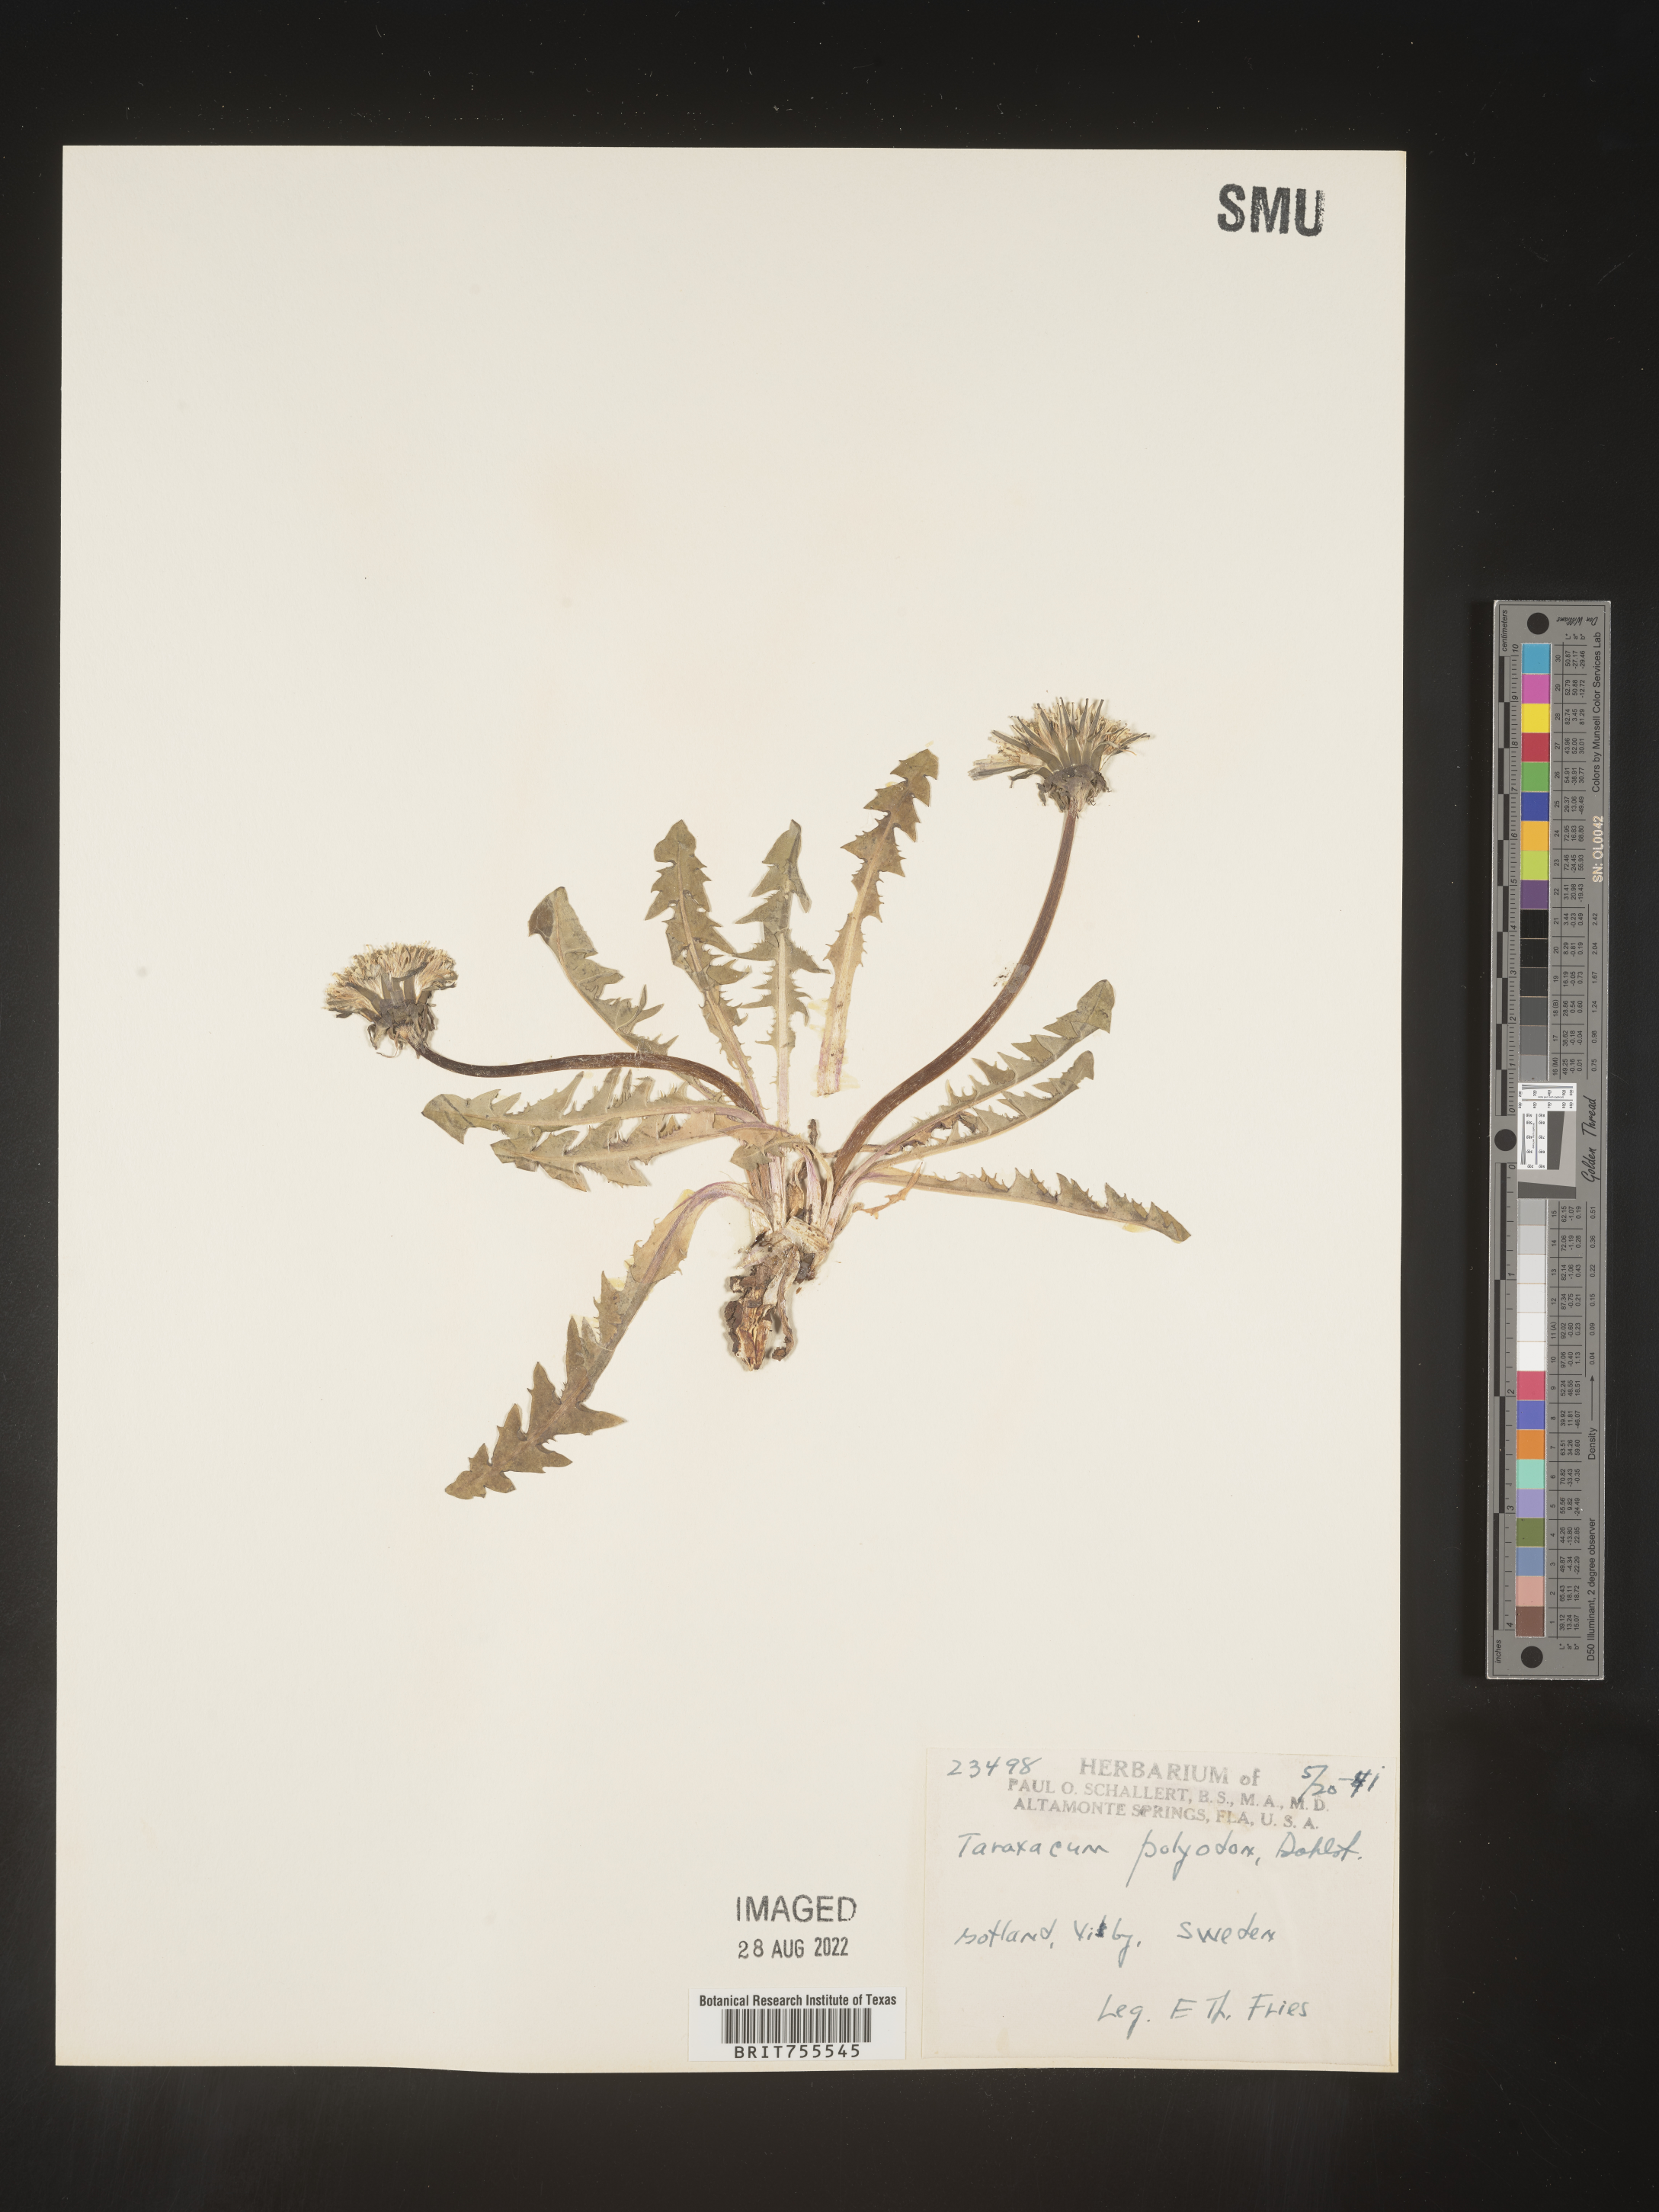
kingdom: Plantae
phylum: Tracheophyta
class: Magnoliopsida
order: Asterales
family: Asteraceae
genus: Taraxacum
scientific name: Taraxacum
